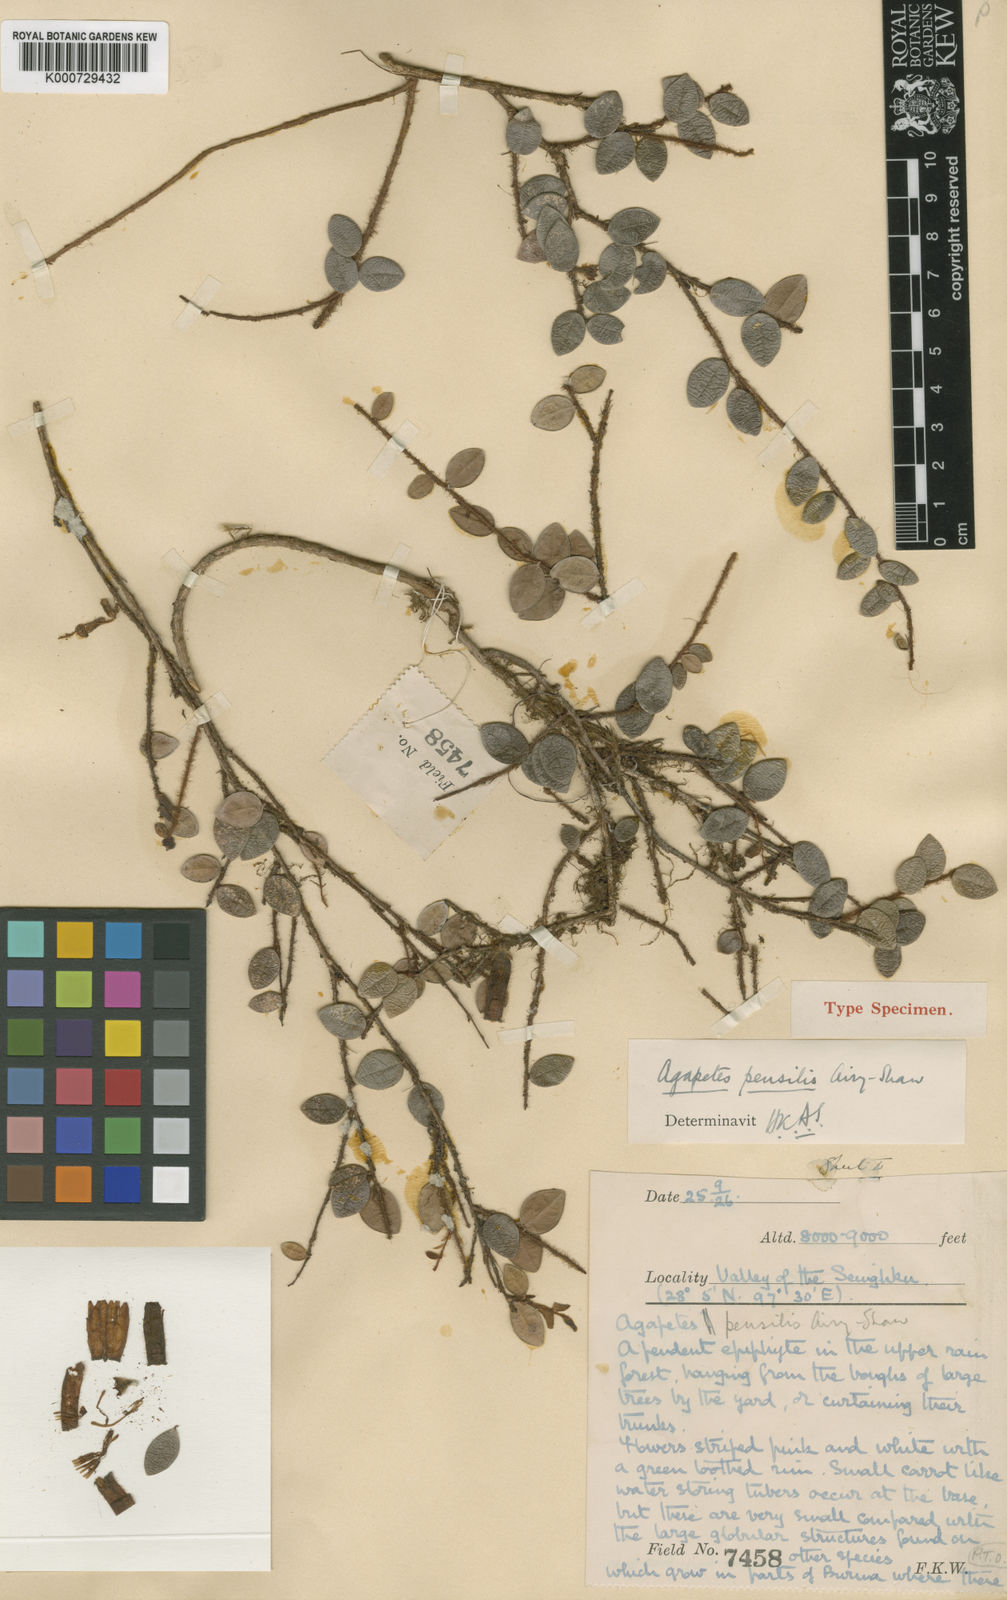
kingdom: Plantae
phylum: Tracheophyta
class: Magnoliopsida
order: Ericales
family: Ericaceae
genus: Agapetes
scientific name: Agapetes pensilis
